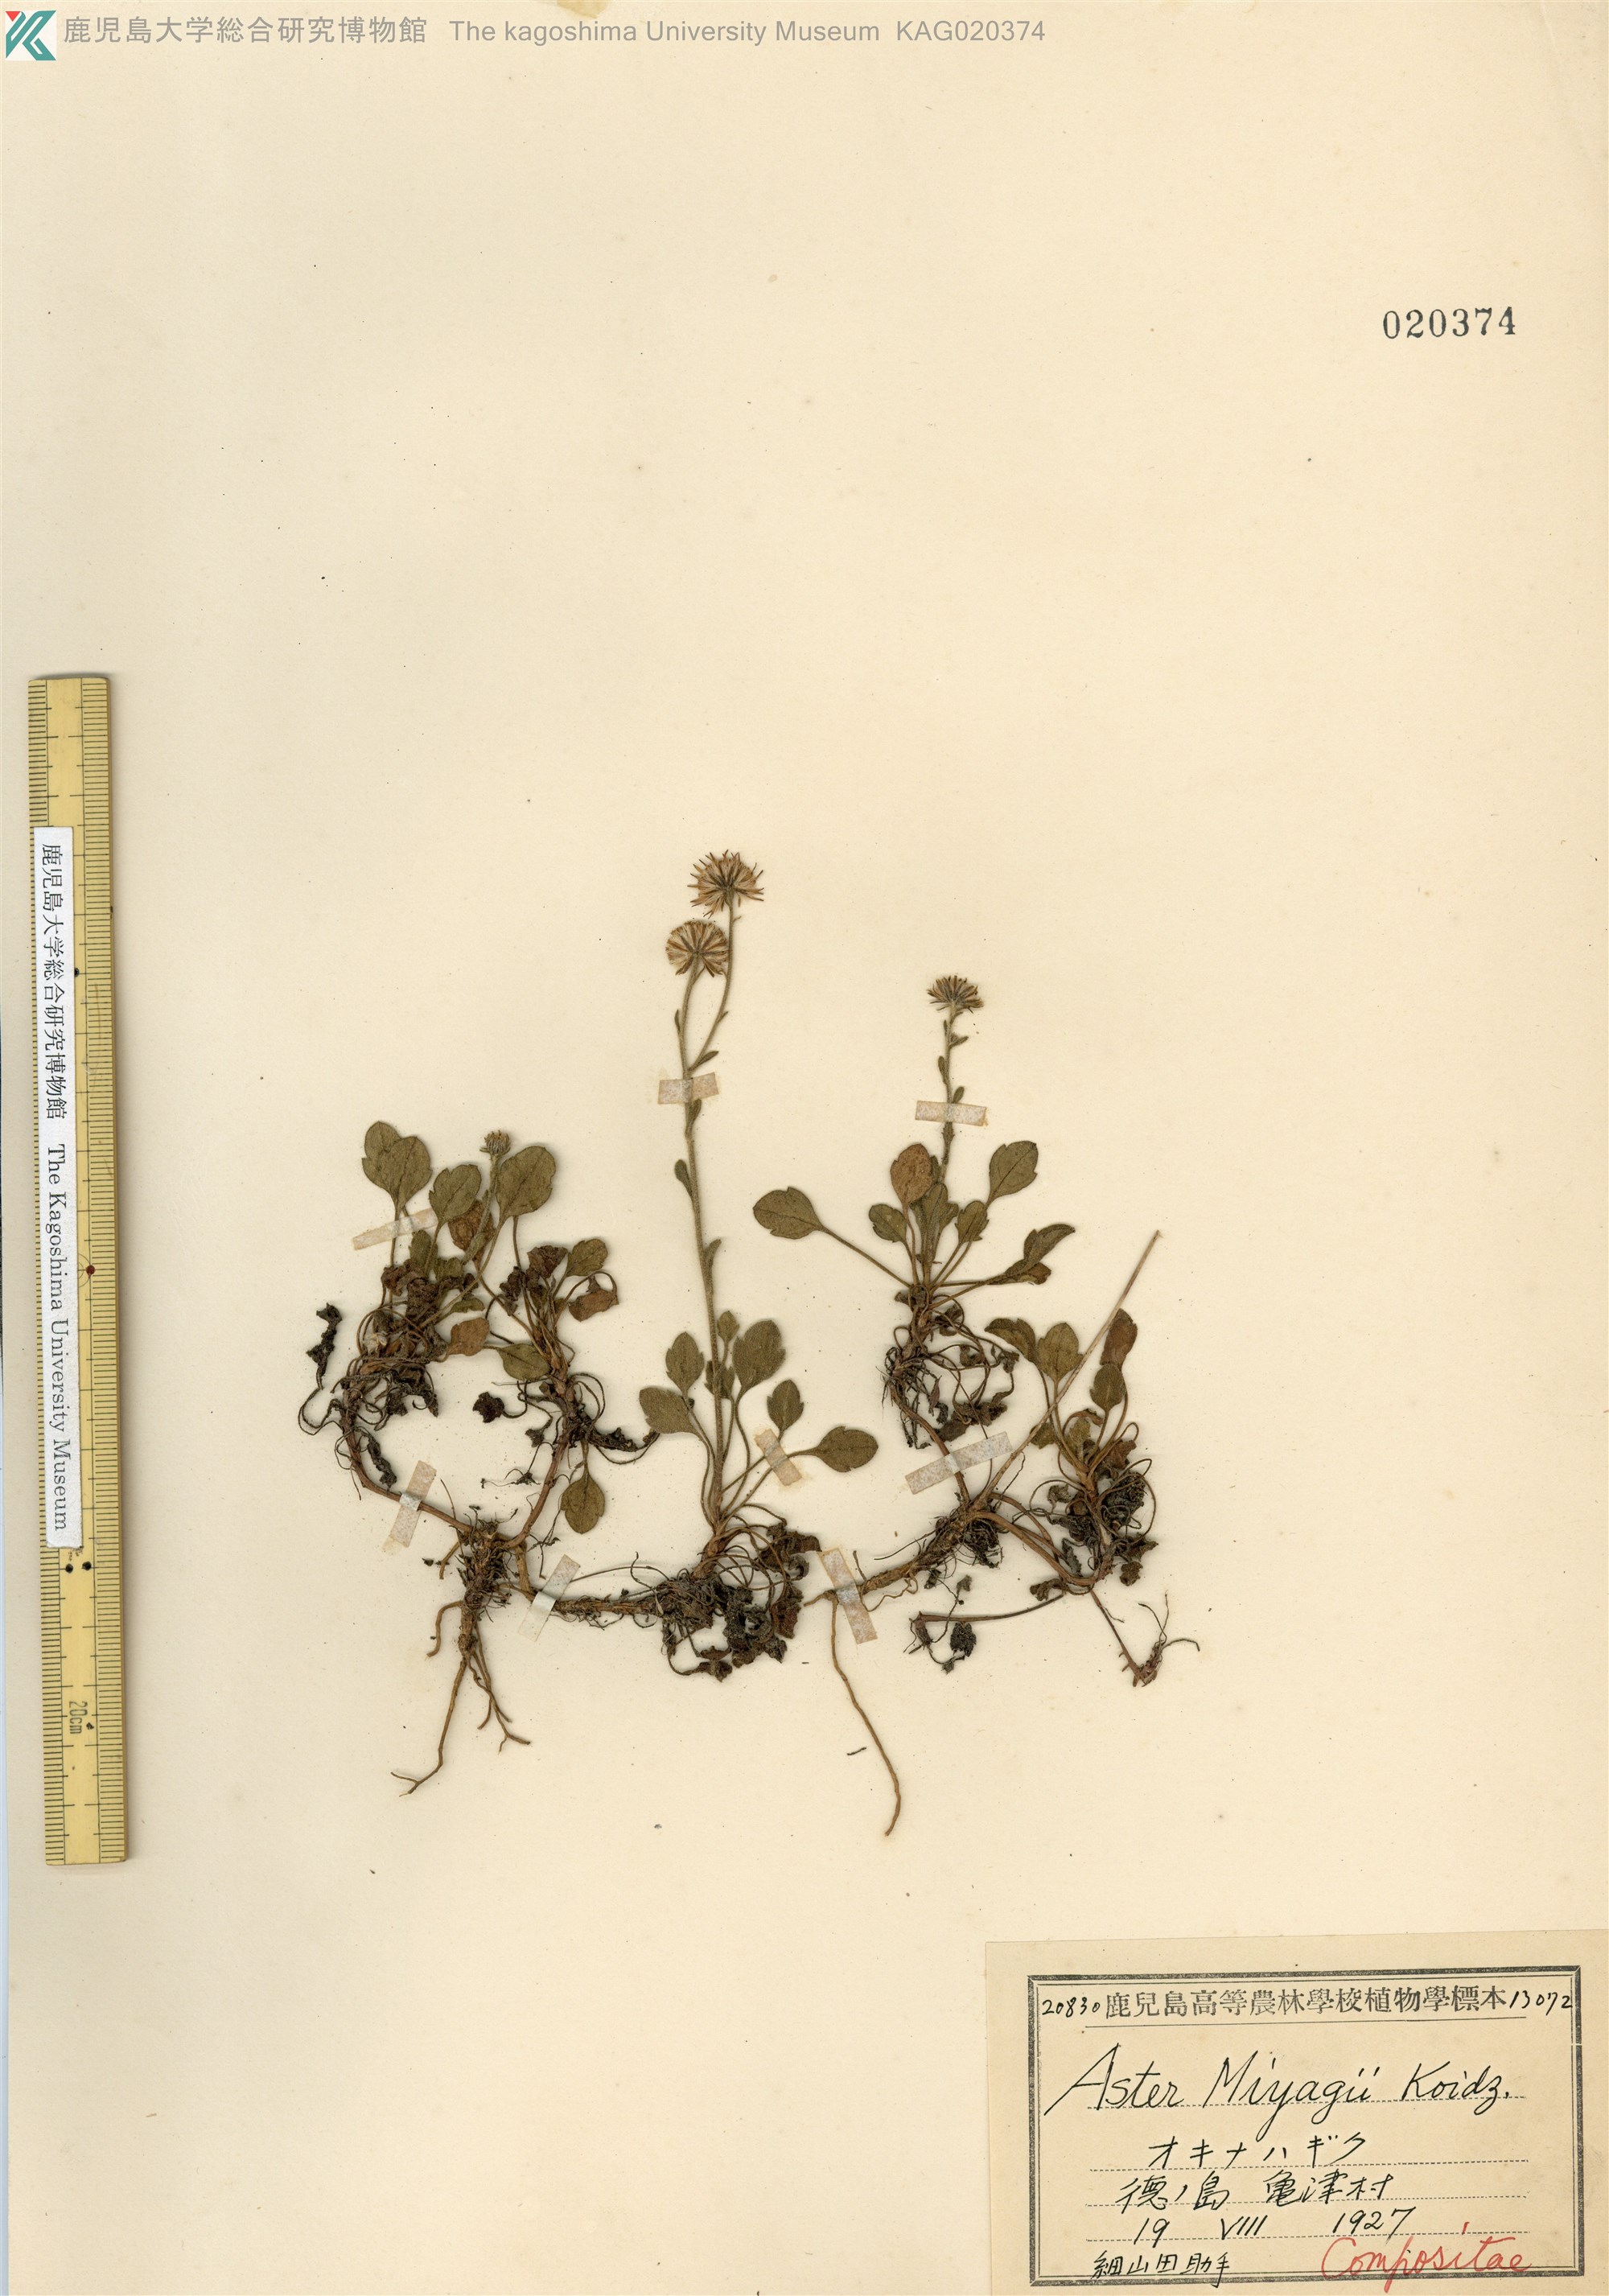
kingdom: Plantae
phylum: Tracheophyta
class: Magnoliopsida
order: Asterales
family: Asteraceae
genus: Aster
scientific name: Aster miyagii
